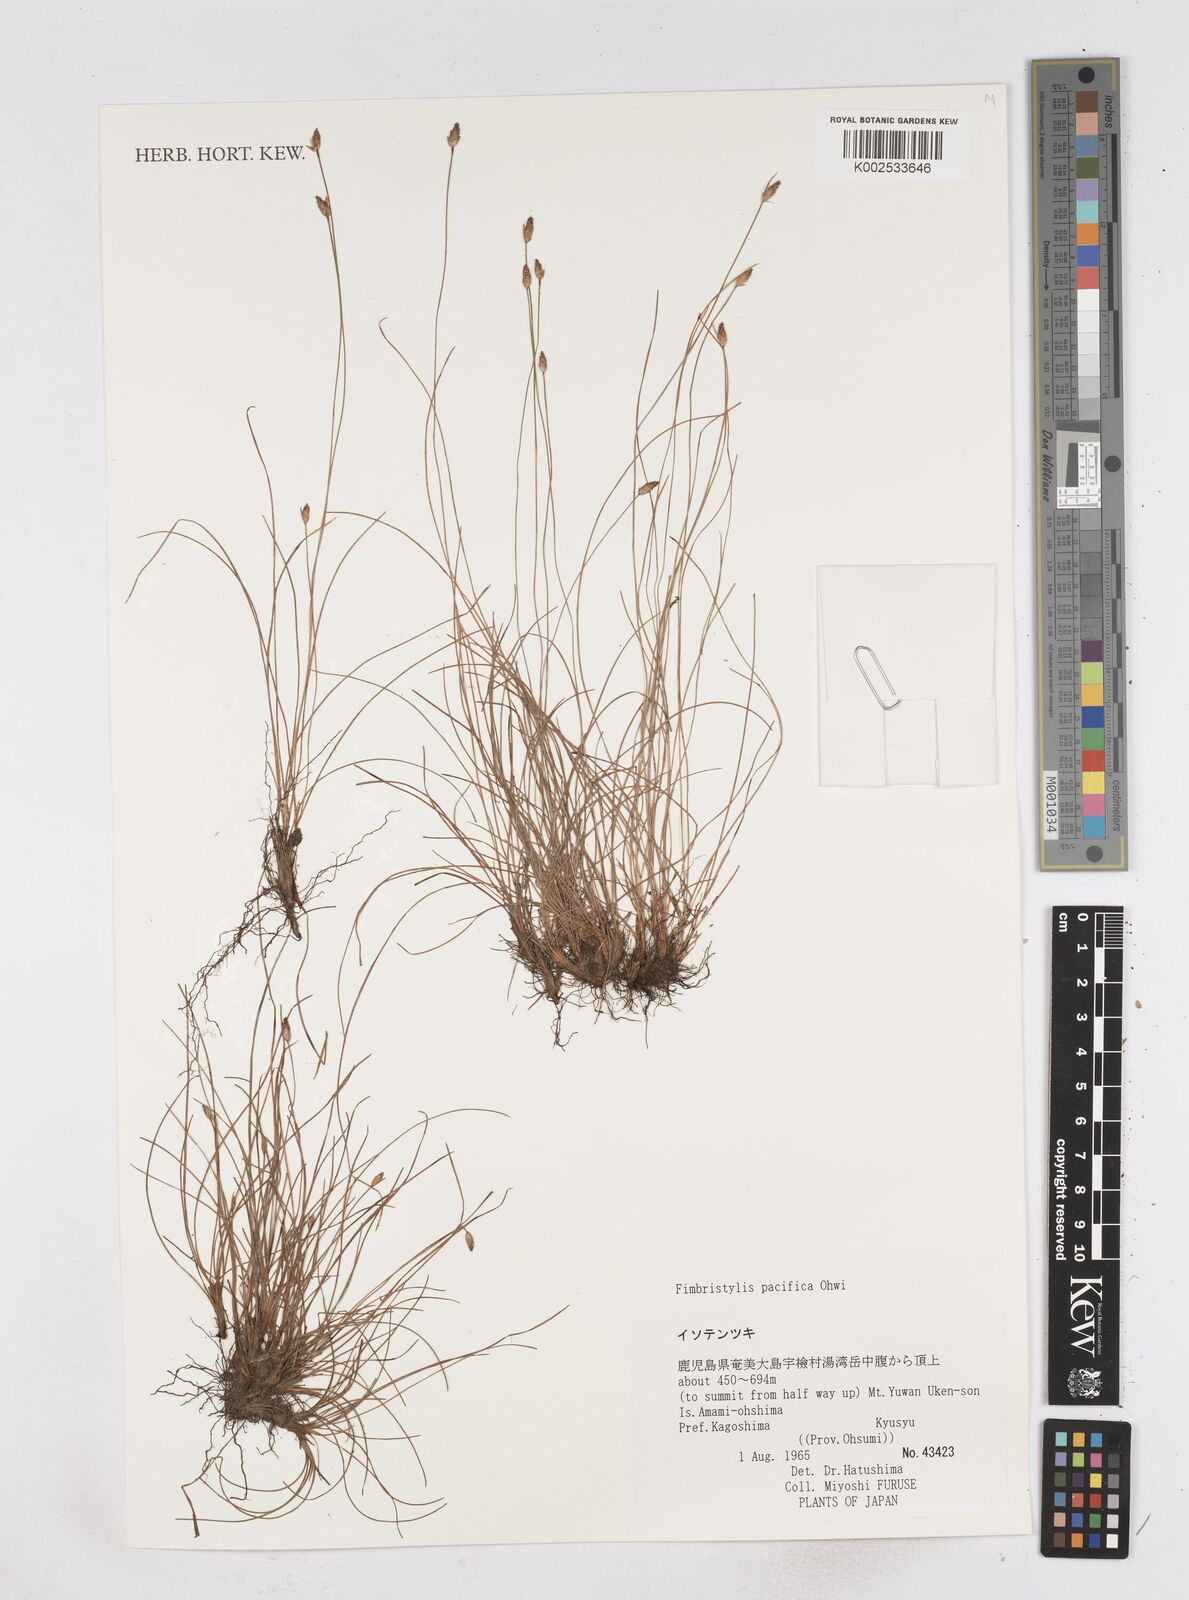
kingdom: Plantae
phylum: Tracheophyta
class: Liliopsida
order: Poales
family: Cyperaceae
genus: Fimbristylis
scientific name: Fimbristylis tristachya
